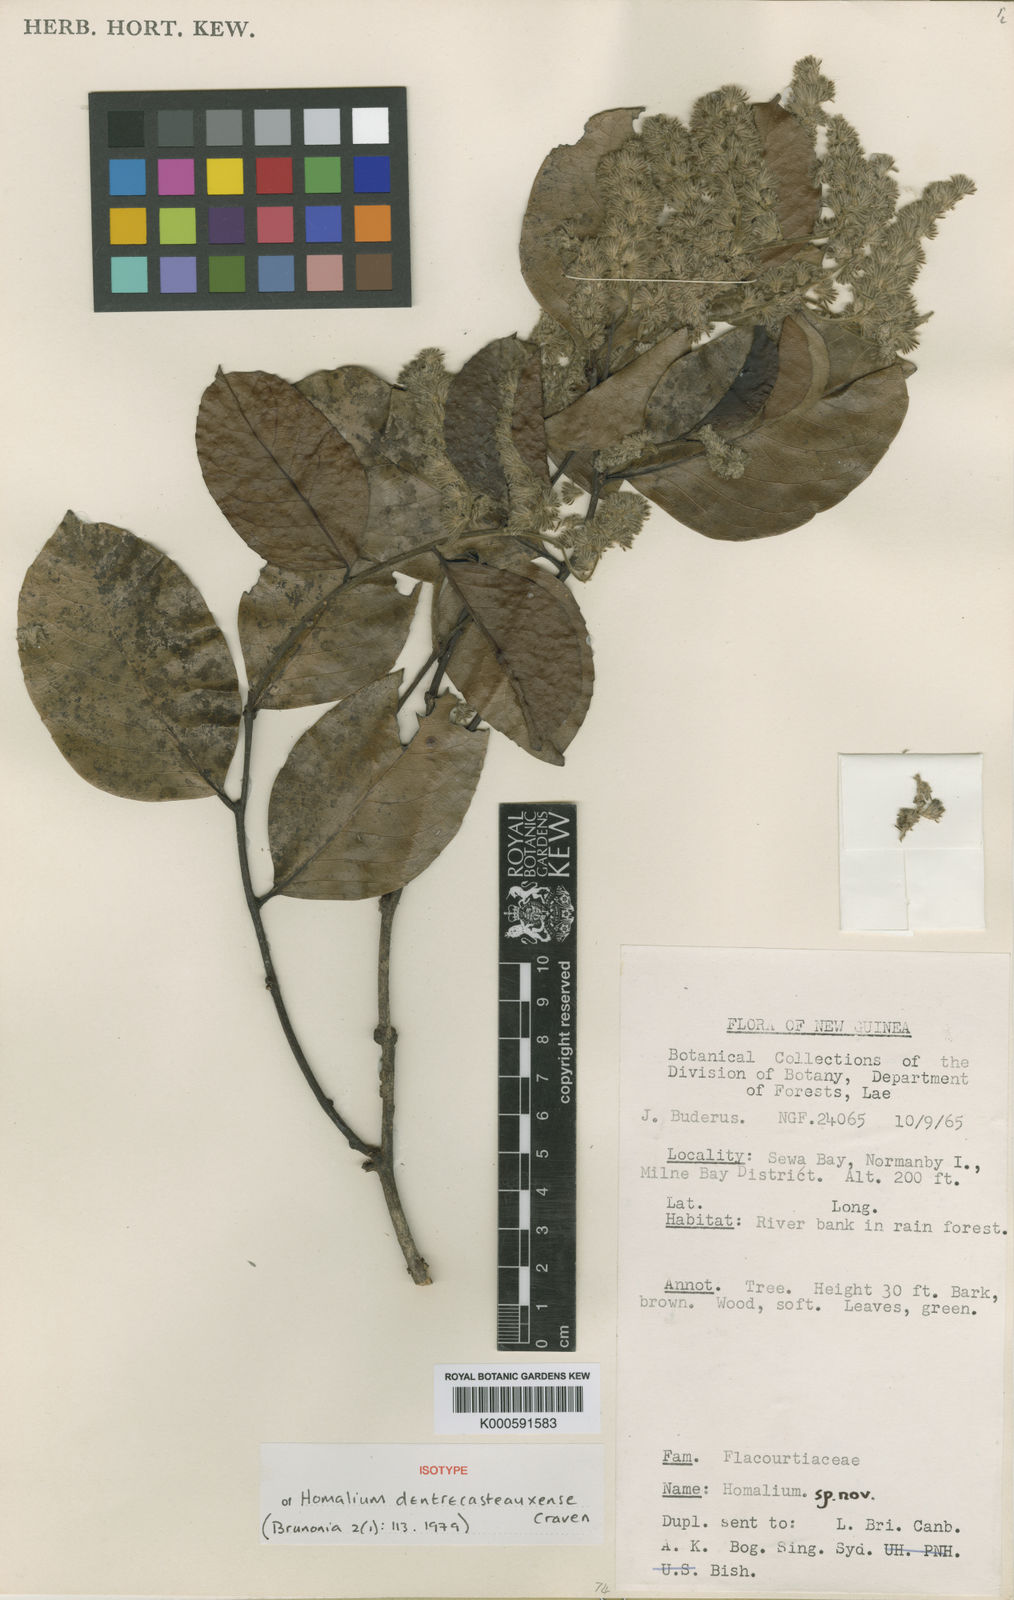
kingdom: Plantae
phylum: Tracheophyta
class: Magnoliopsida
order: Malpighiales
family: Salicaceae
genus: Homalium
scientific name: Homalium dentrecasteauxense
